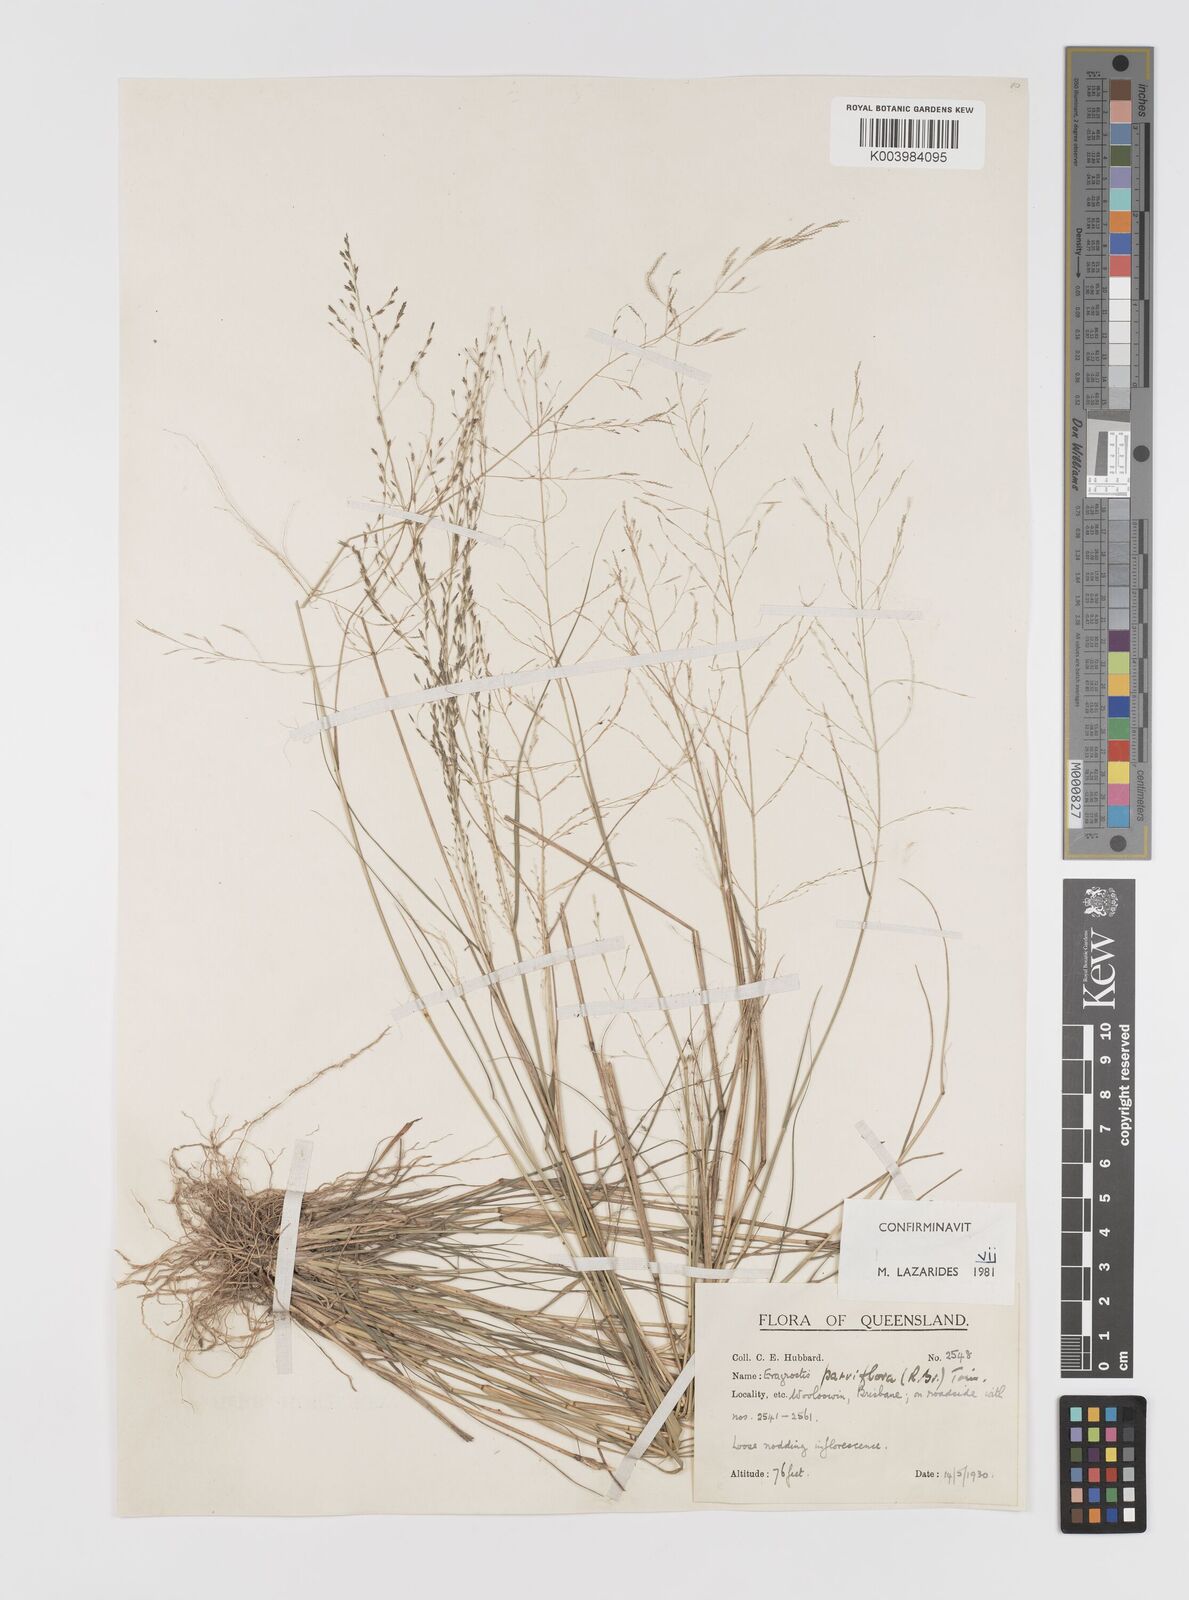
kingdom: Plantae
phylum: Tracheophyta
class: Liliopsida
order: Poales
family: Poaceae
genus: Eragrostis
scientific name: Eragrostis parviflora
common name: Weeping love-grass
